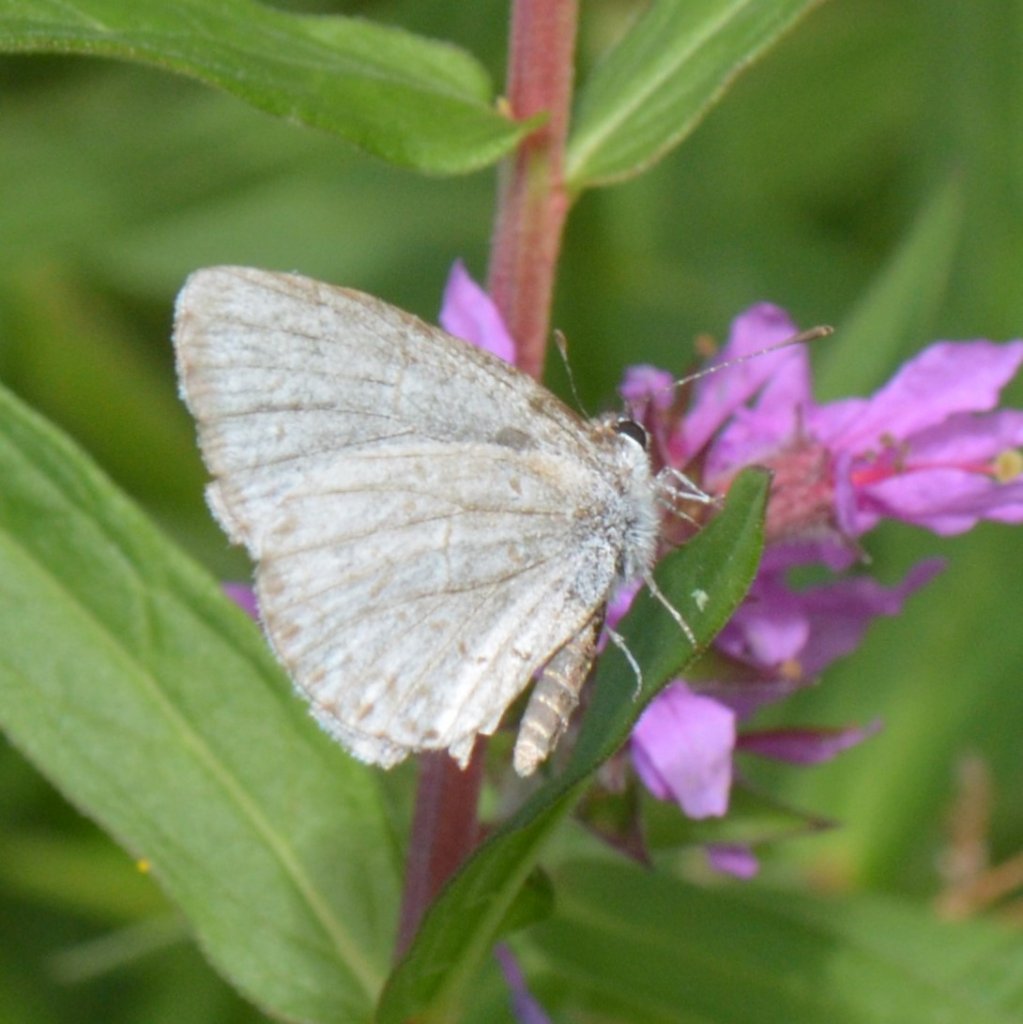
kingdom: Animalia
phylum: Arthropoda
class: Insecta
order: Lepidoptera
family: Lycaenidae
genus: Celastrina
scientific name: Celastrina lucia
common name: Northern Spring Azure
